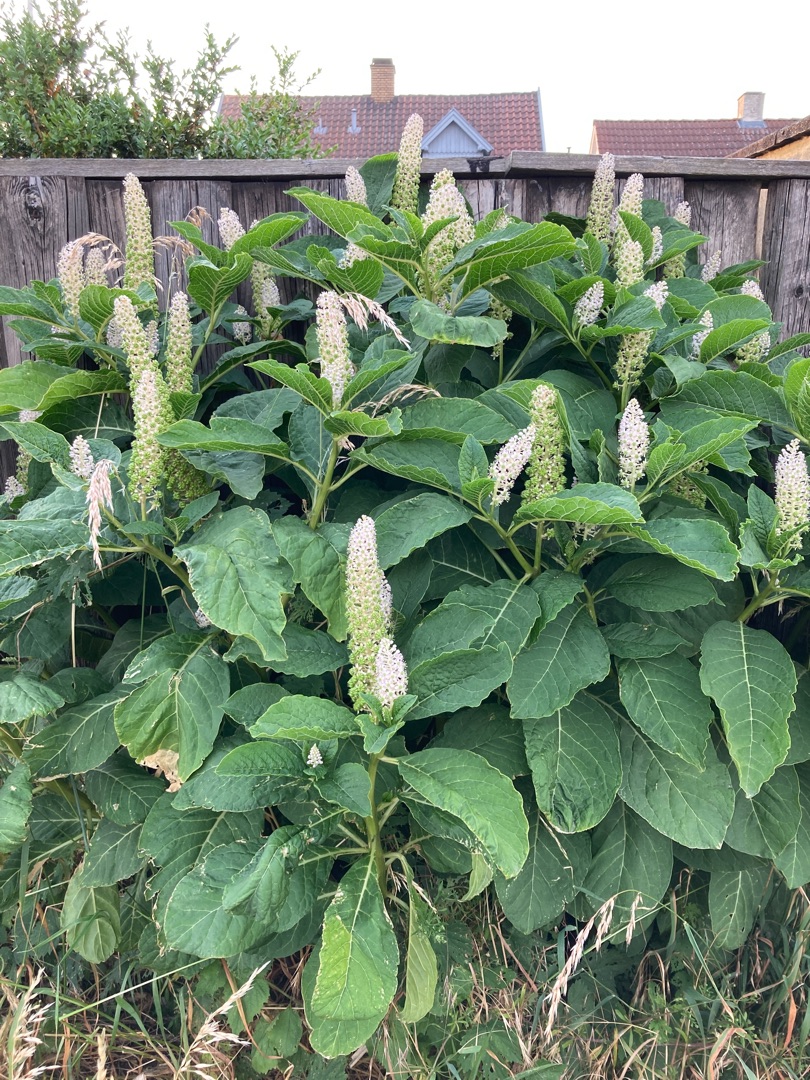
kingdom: Plantae
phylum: Tracheophyta
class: Magnoliopsida
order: Caryophyllales
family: Phytolaccaceae
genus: Phytolacca
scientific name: Phytolacca acinosa
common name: Asiatisk kermesbær
